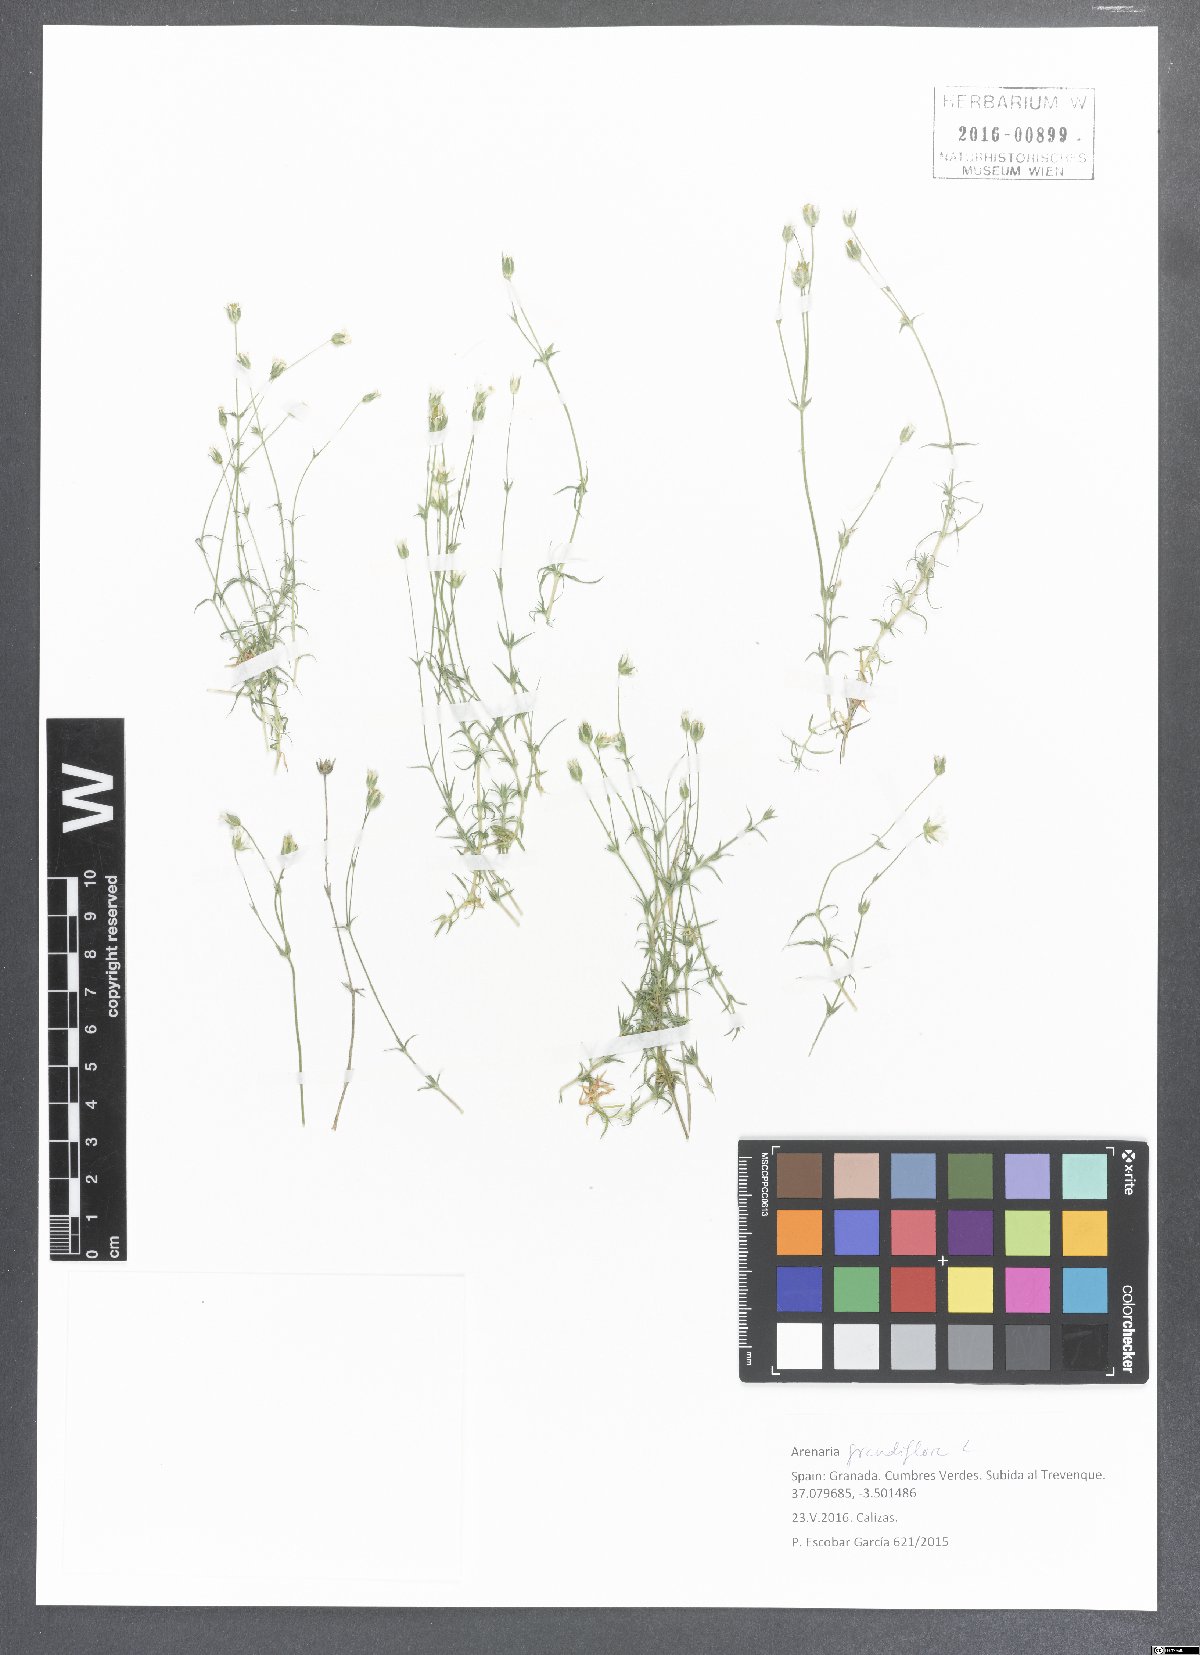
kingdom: Plantae
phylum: Tracheophyta
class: Magnoliopsida
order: Caryophyllales
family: Caryophyllaceae
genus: Arenaria
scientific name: Arenaria grandiflora
